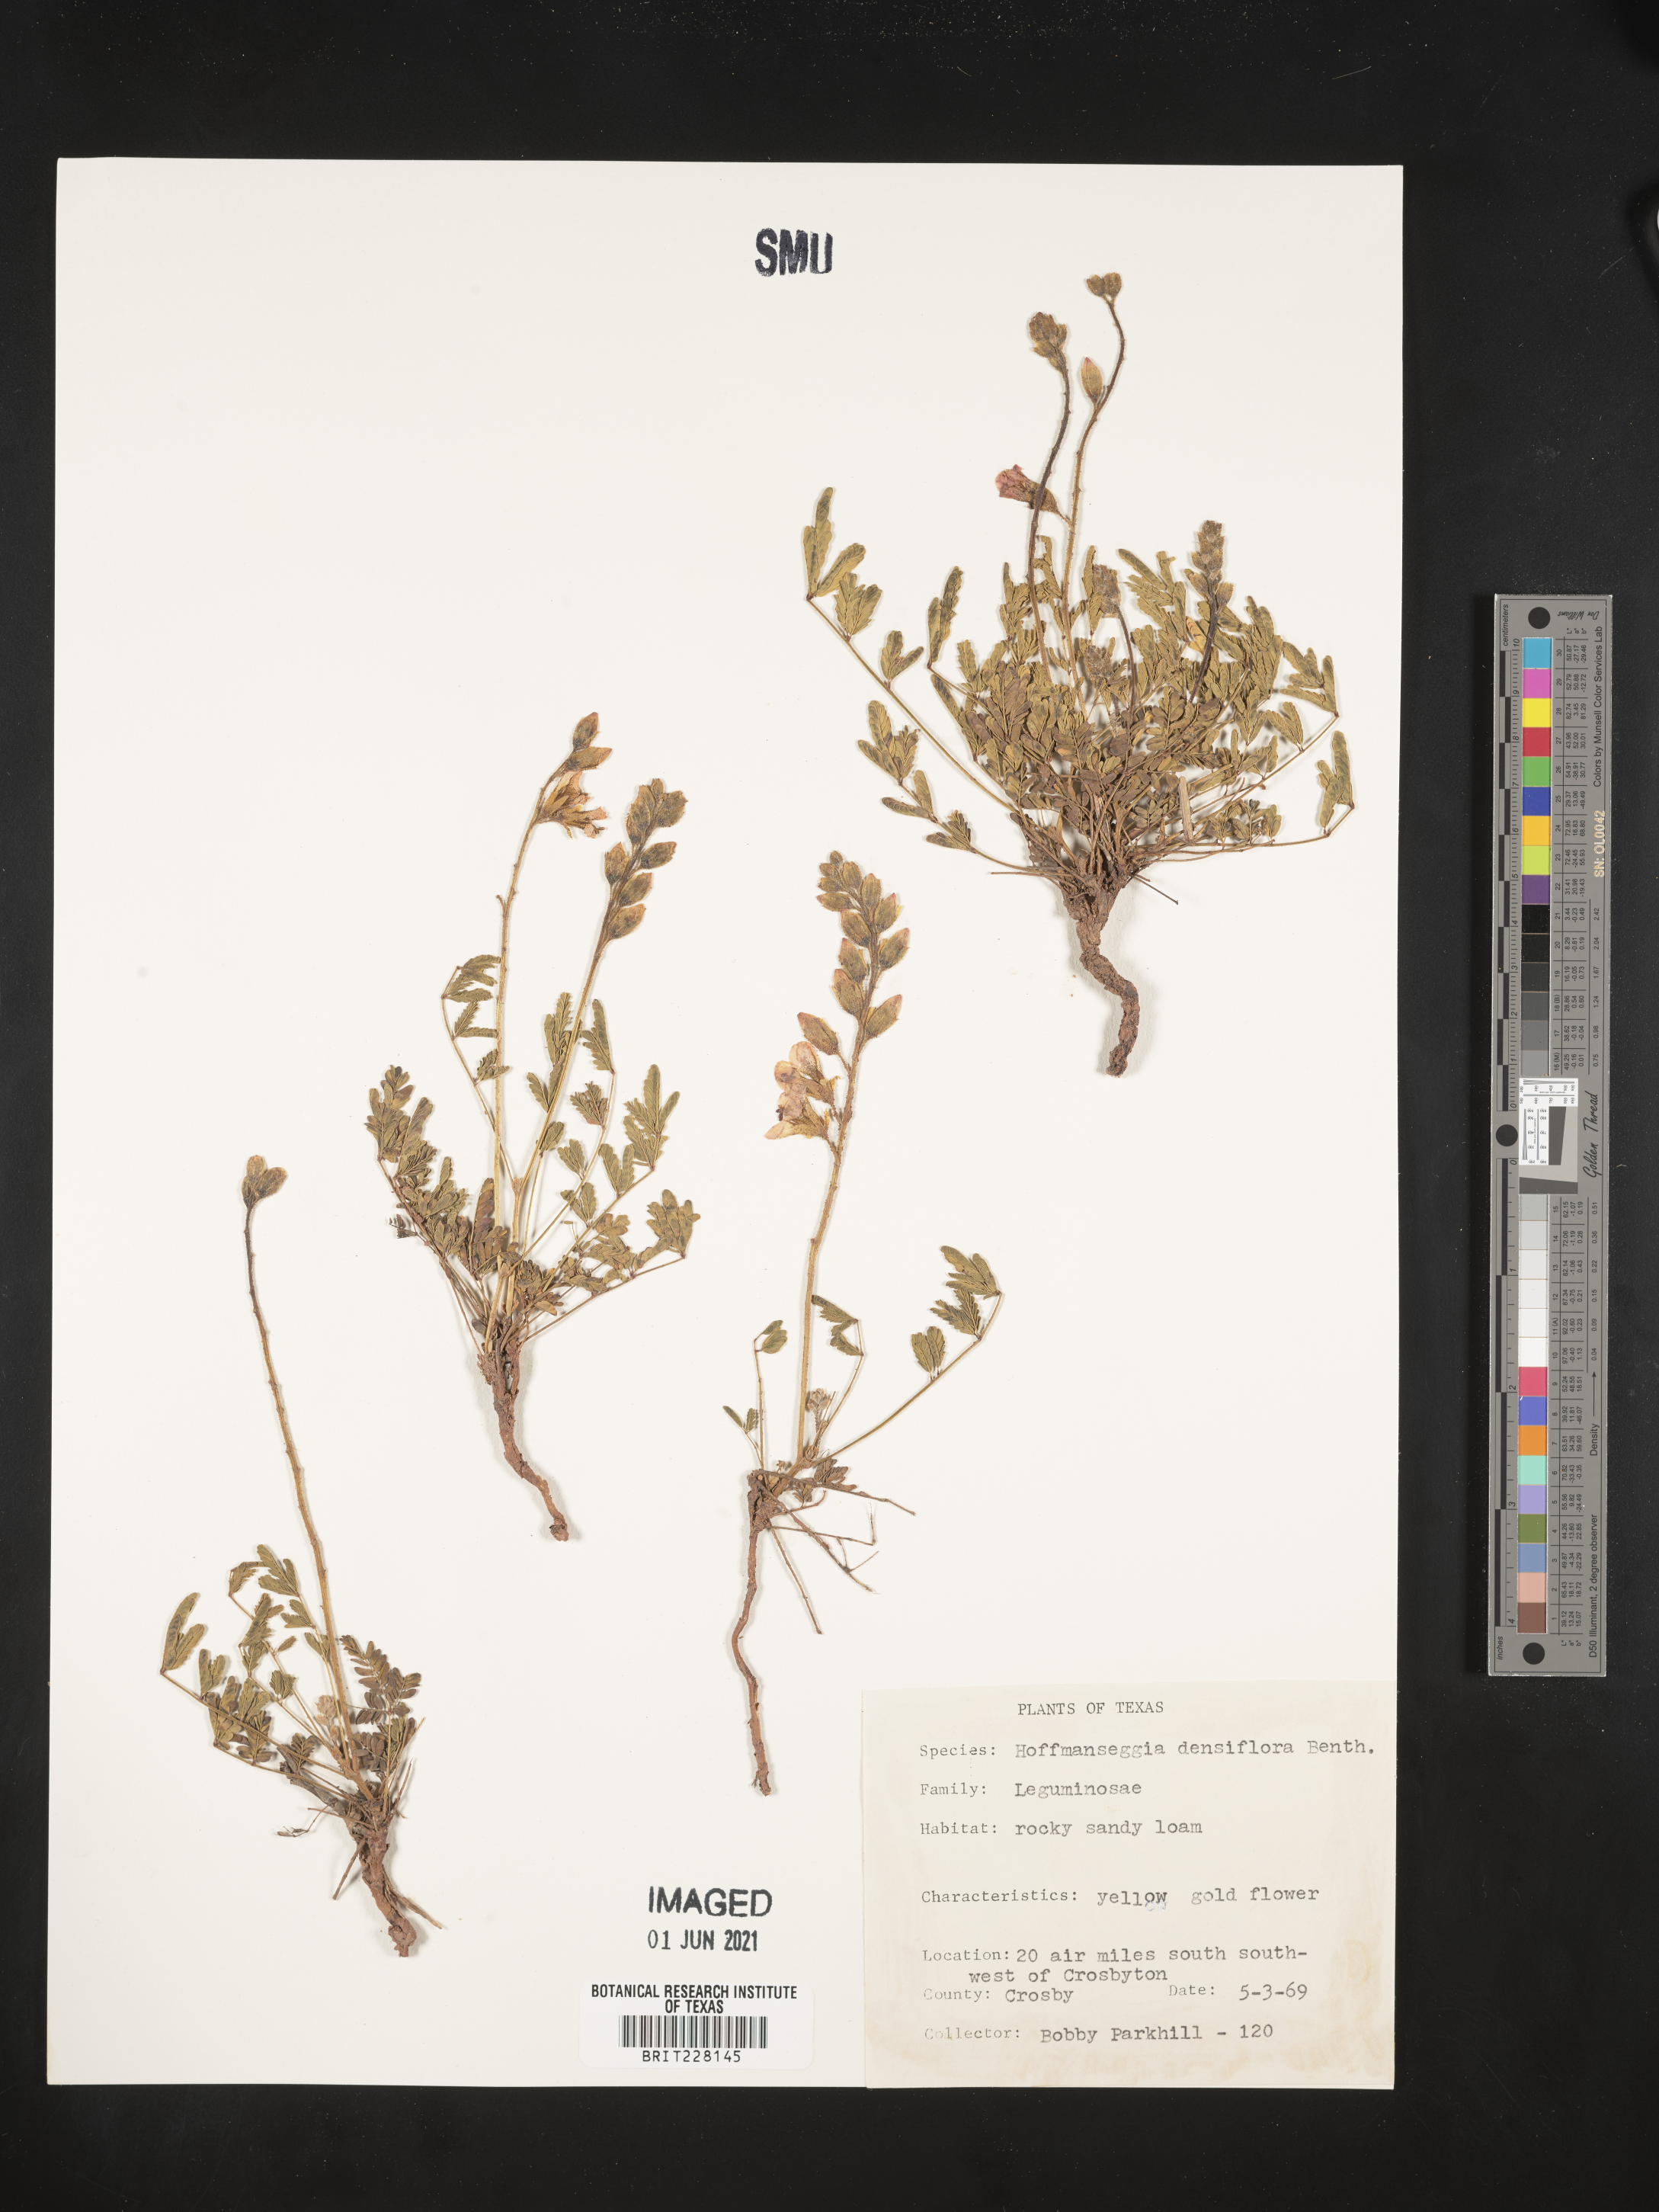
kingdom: Plantae
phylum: Tracheophyta
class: Magnoliopsida
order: Fabales
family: Fabaceae
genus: Hoffmannseggia
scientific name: Hoffmannseggia glauca
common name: Pignut
